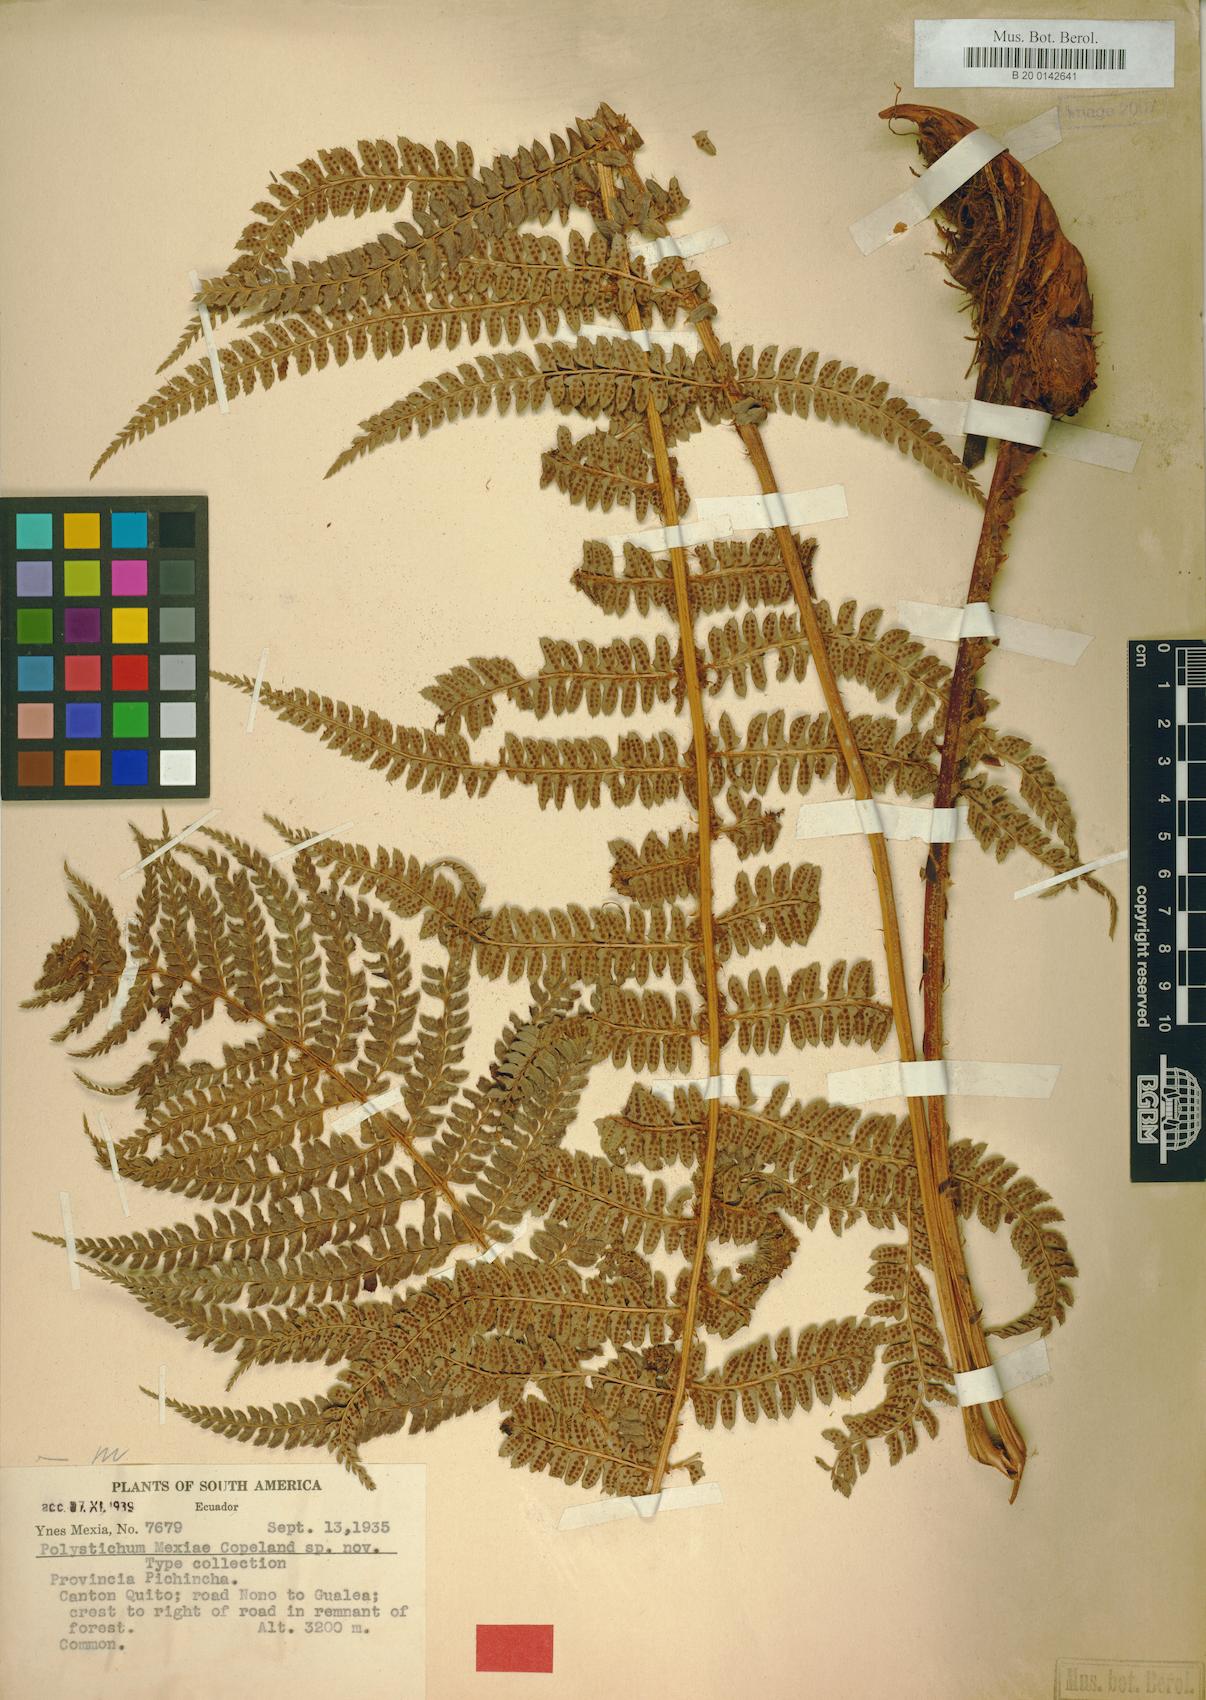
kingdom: Plantae
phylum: Tracheophyta
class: Polypodiopsida
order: Polypodiales
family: Dryopteridaceae
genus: Polystichum
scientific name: Polystichum mexiae
